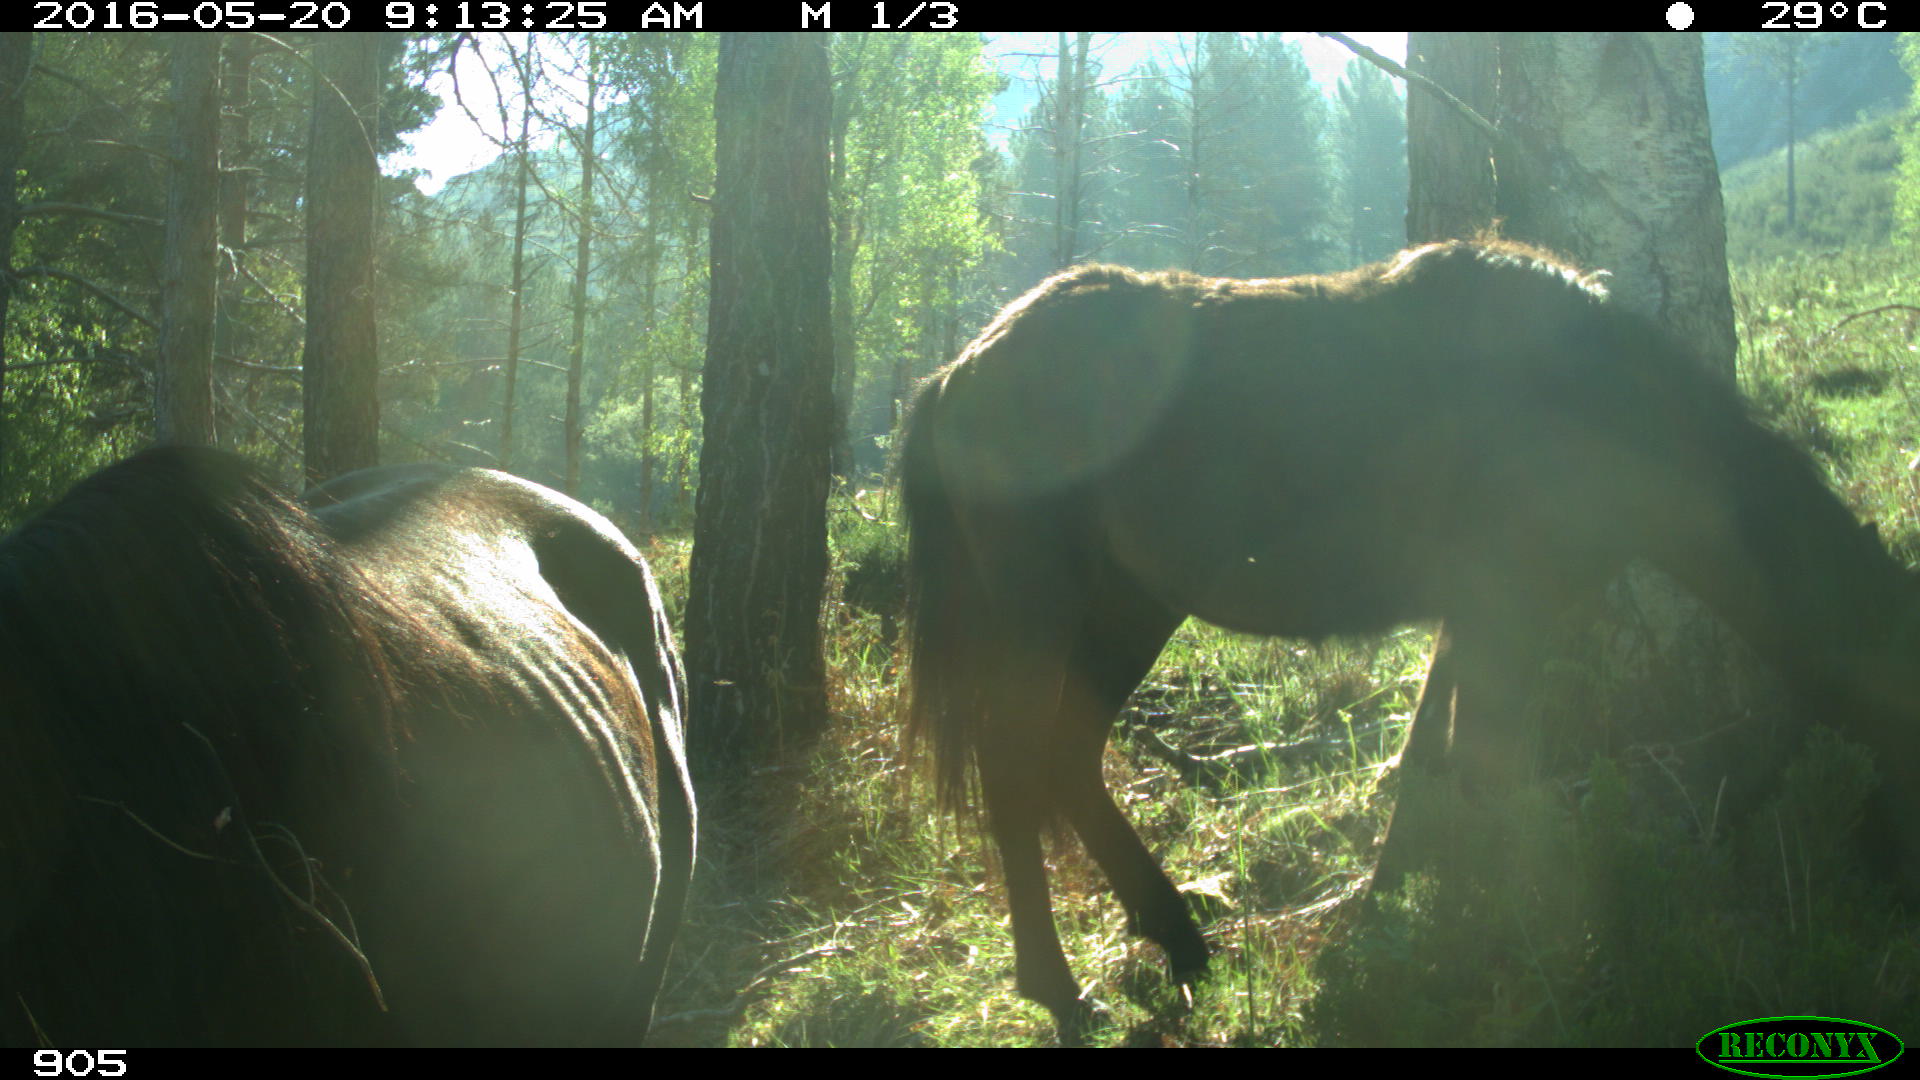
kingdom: Animalia
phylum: Chordata
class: Mammalia
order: Perissodactyla
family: Equidae
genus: Equus
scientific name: Equus caballus
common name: Horse
